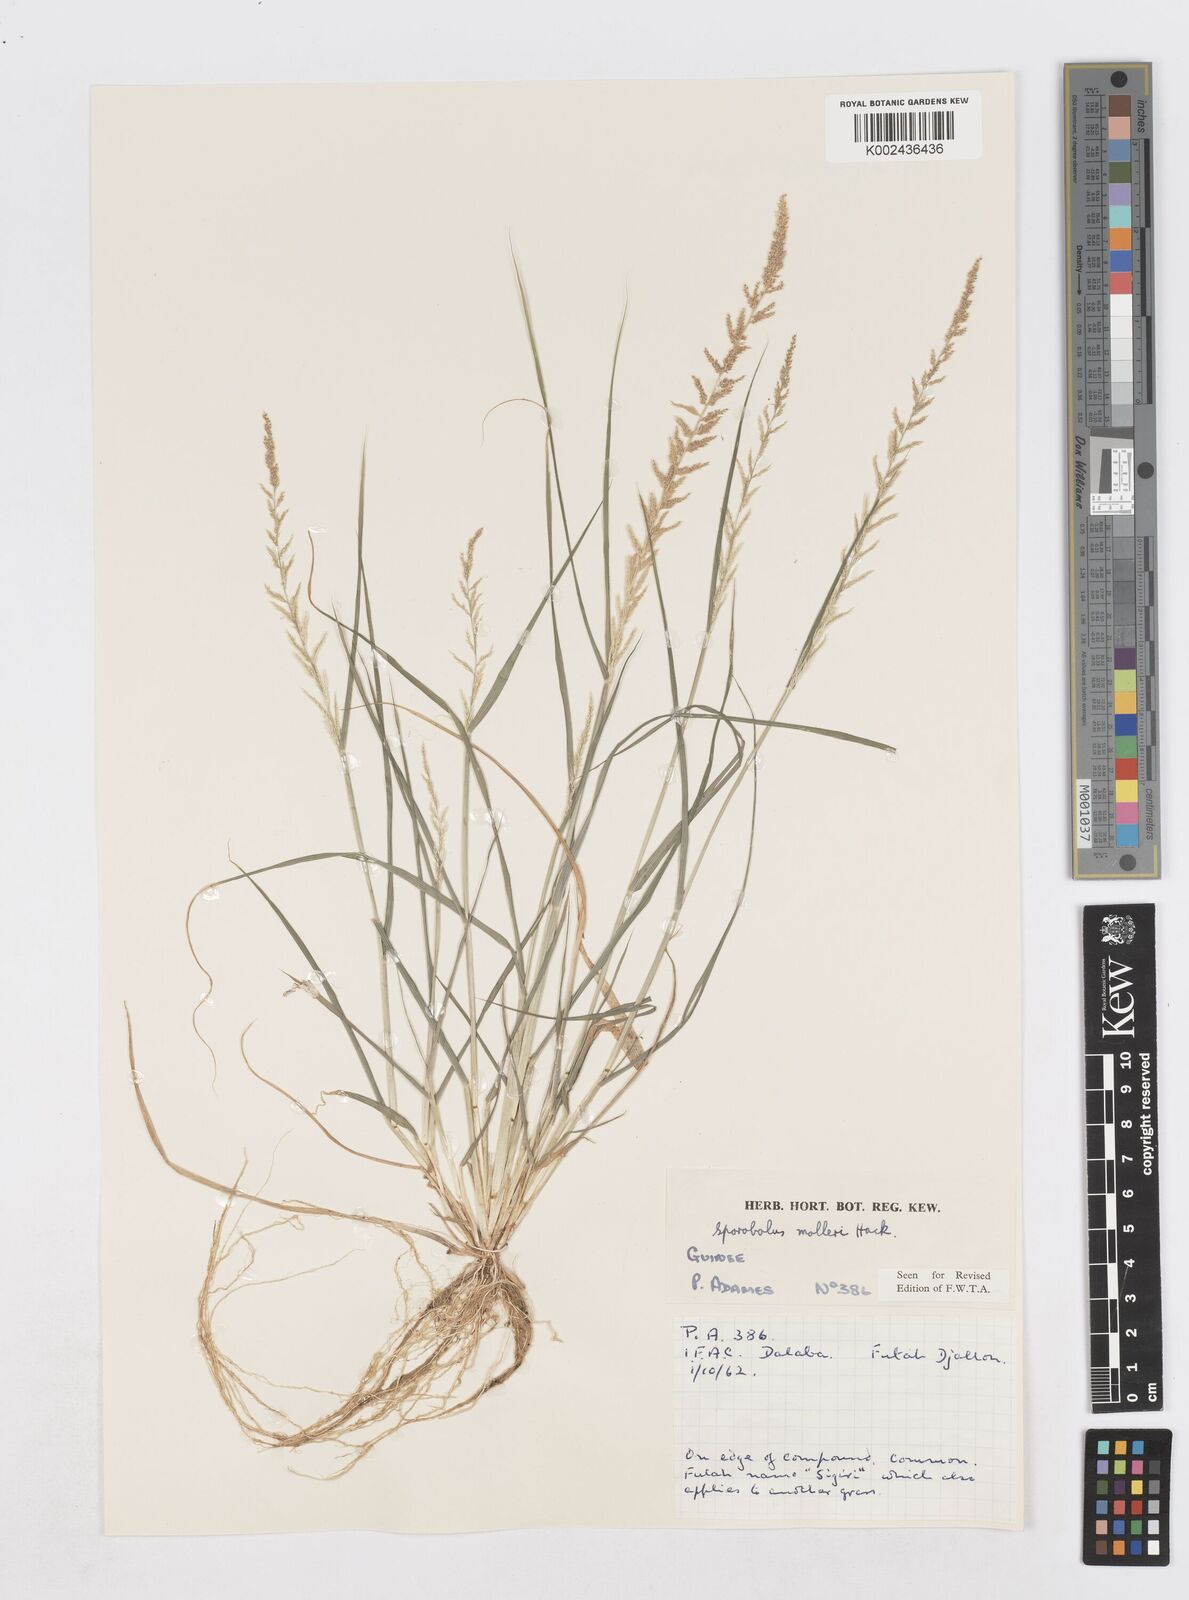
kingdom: Plantae
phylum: Tracheophyta
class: Liliopsida
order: Poales
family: Poaceae
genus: Sporobolus
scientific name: Sporobolus molleri
